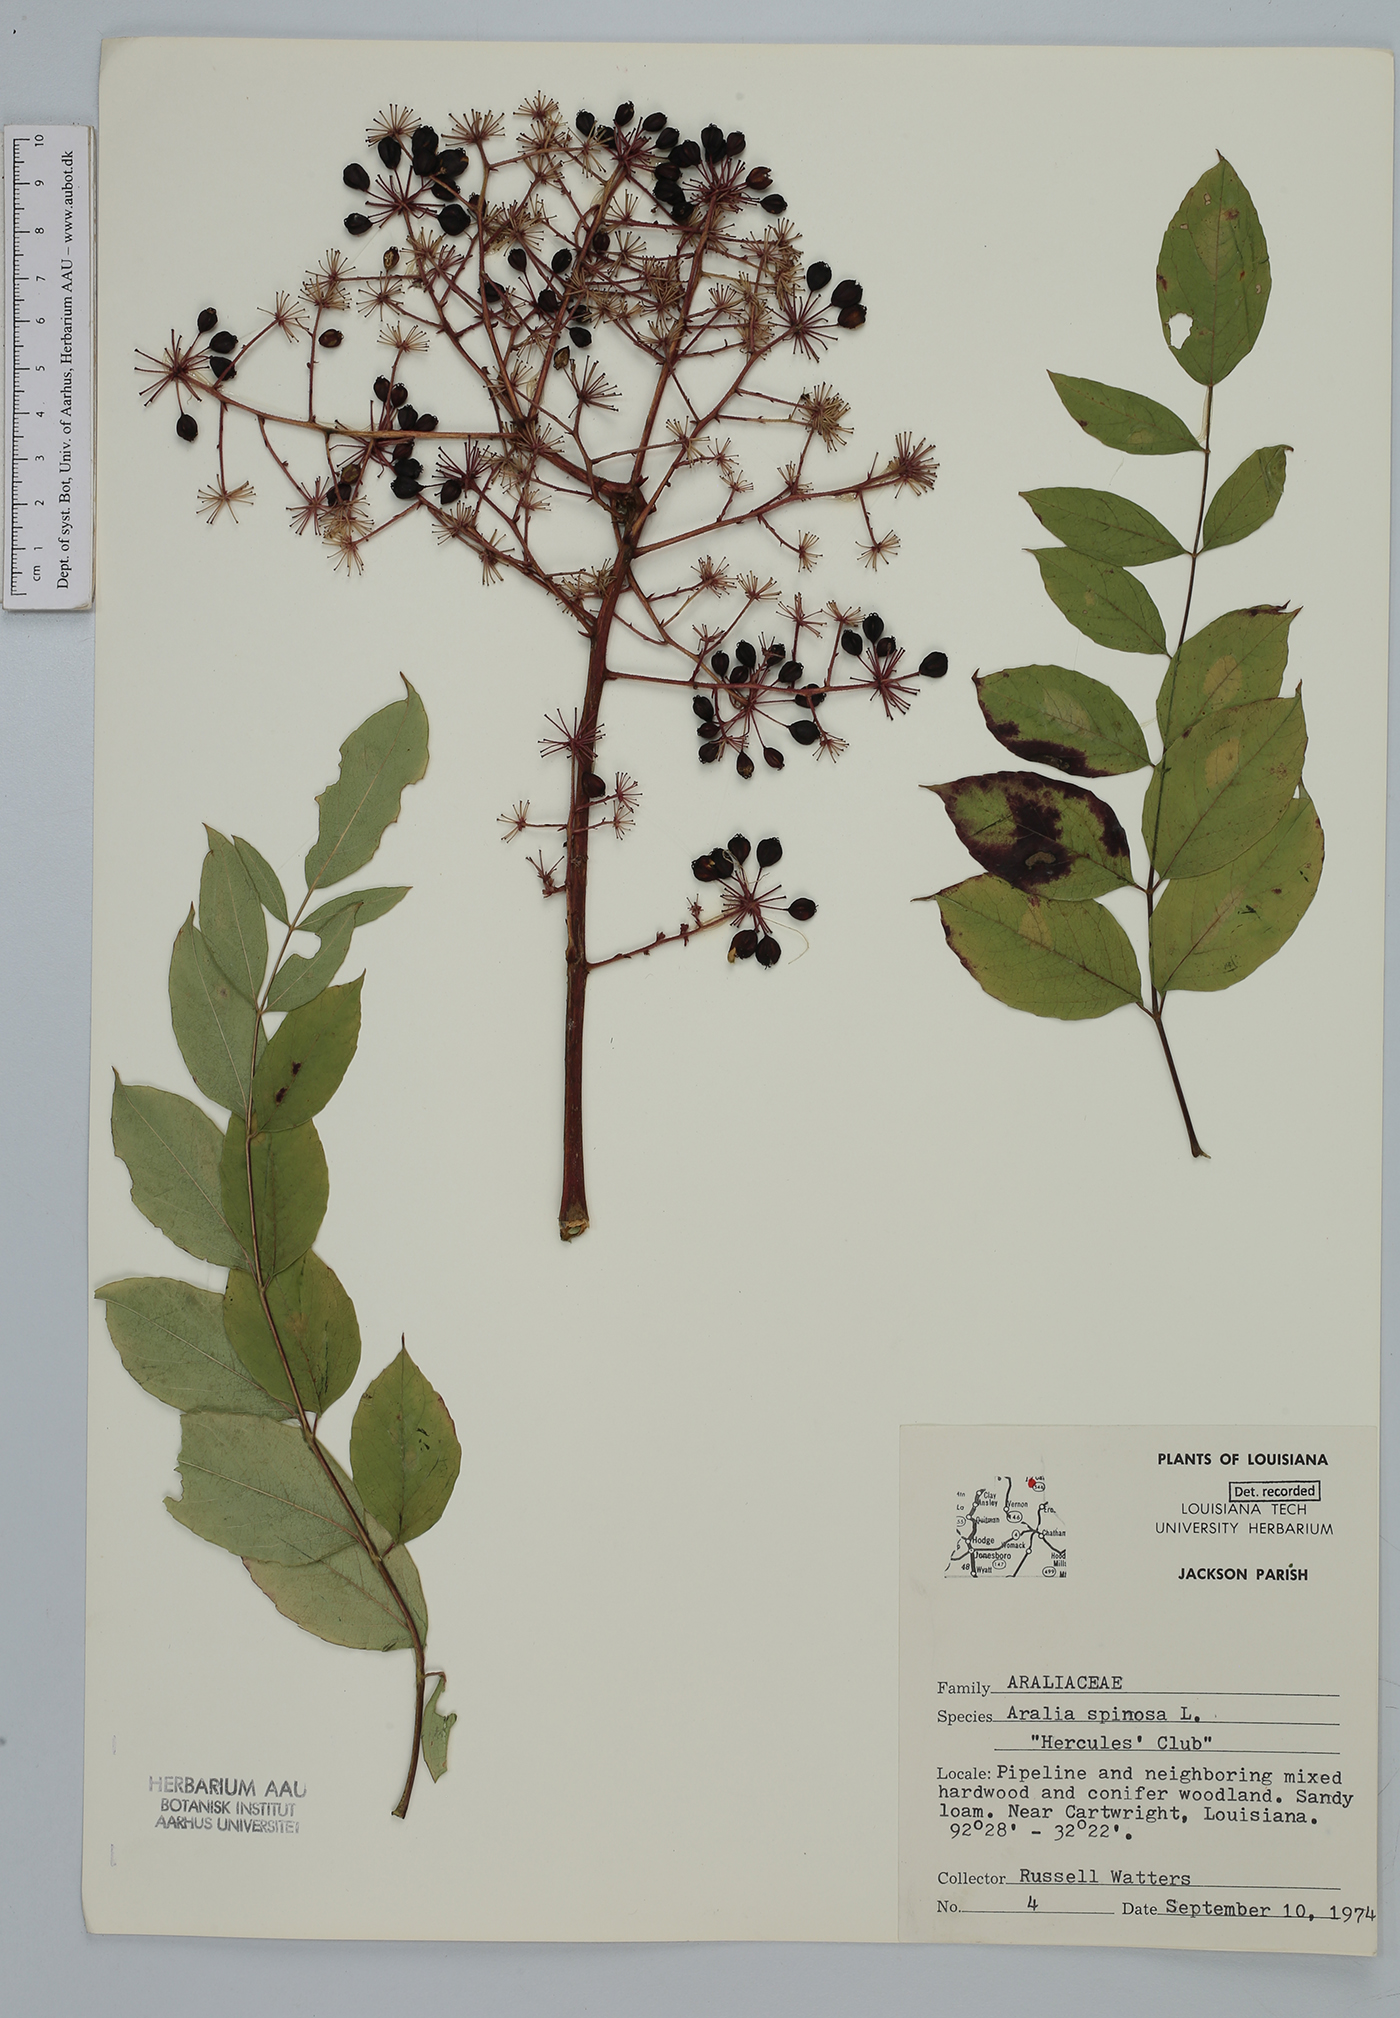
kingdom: Plantae
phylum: Tracheophyta
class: Magnoliopsida
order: Apiales
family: Araliaceae
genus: Aralia
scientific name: Aralia spinosa
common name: Hercules'-club
